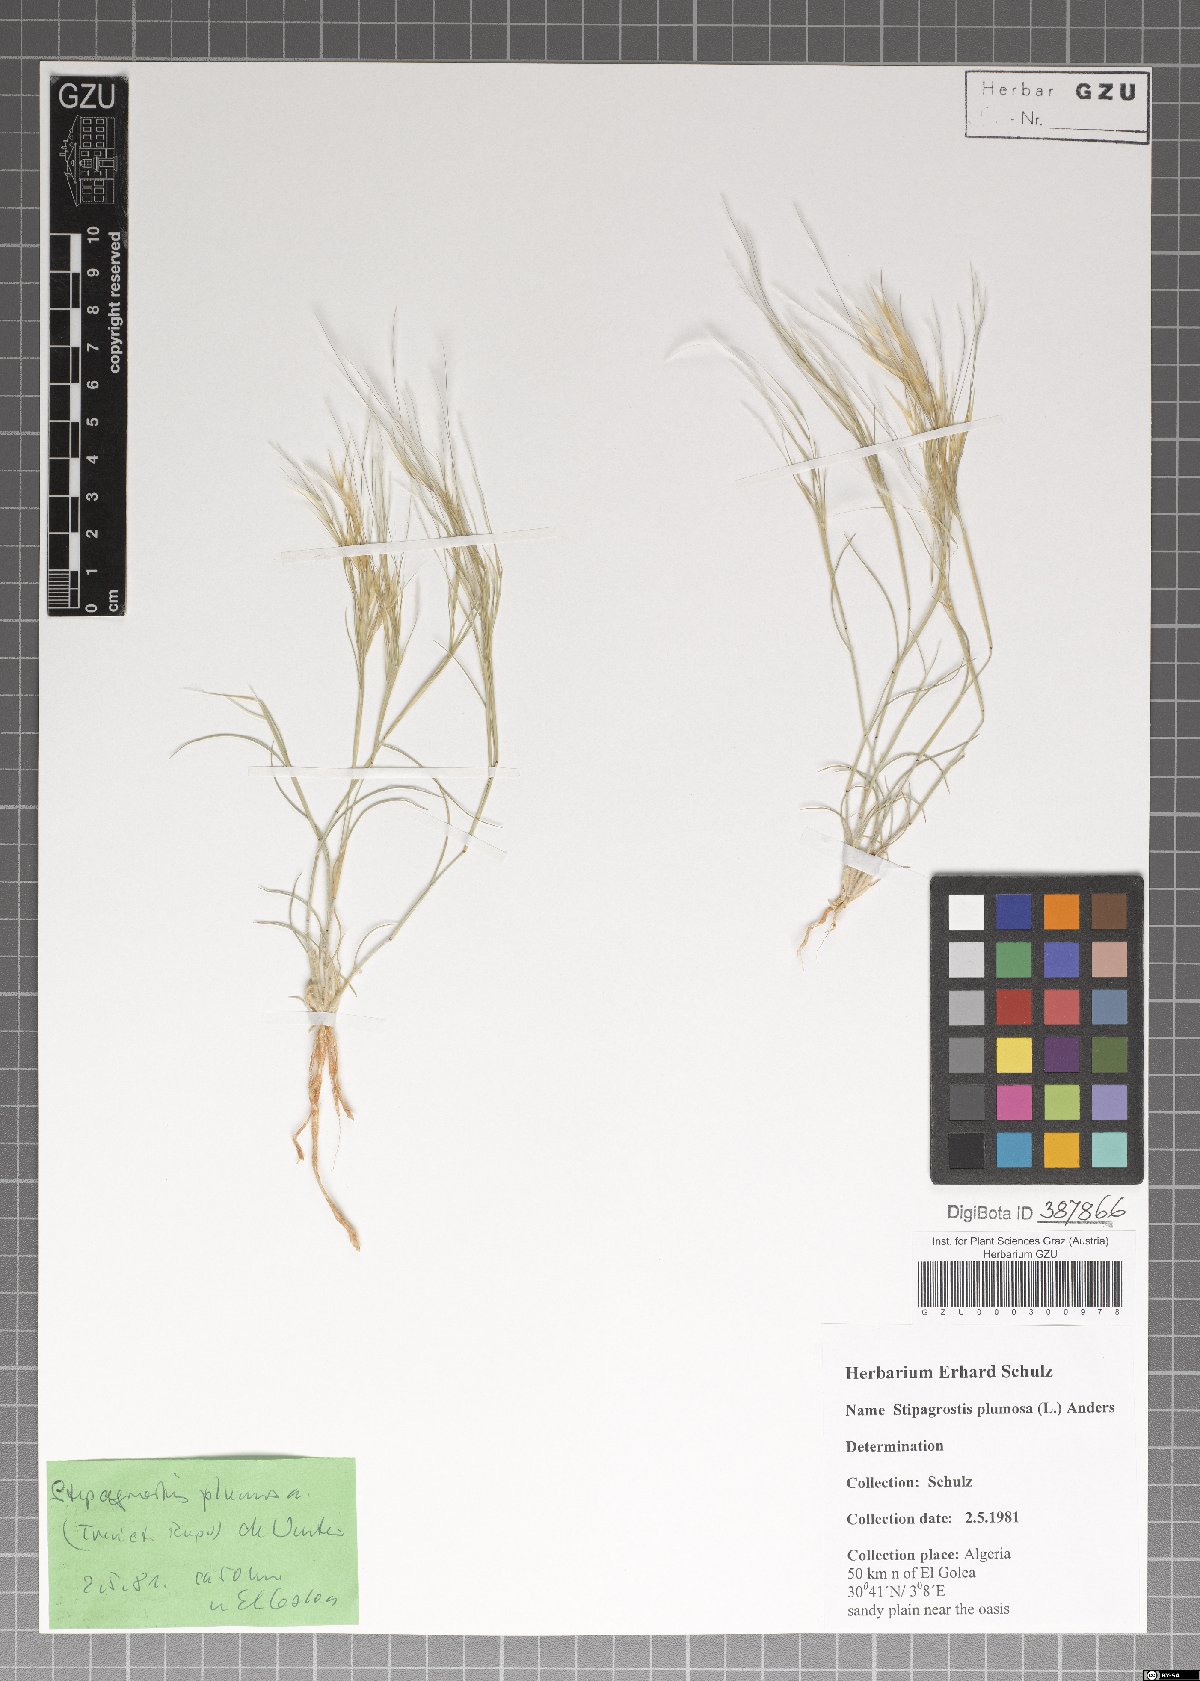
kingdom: Plantae
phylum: Tracheophyta
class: Liliopsida
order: Poales
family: Poaceae
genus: Stipagrostis
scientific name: Stipagrostis plumosa
